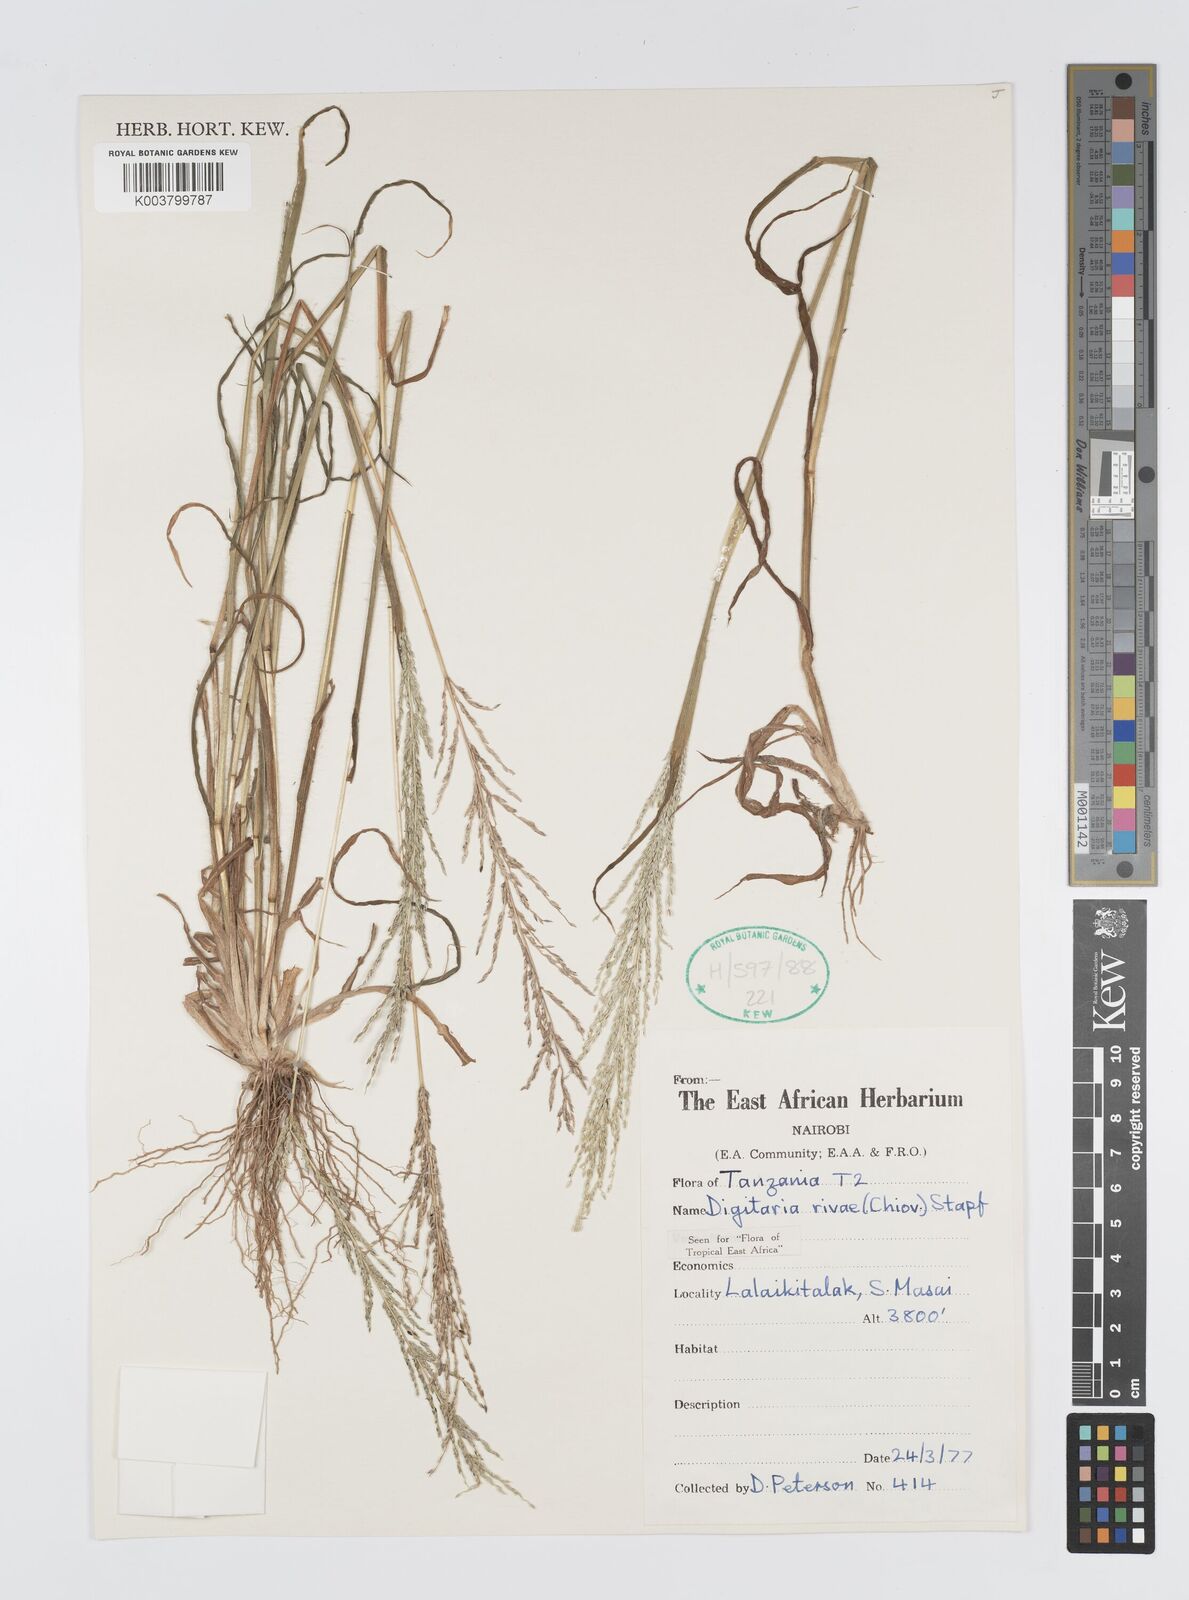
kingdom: Plantae
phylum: Tracheophyta
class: Liliopsida
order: Poales
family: Poaceae
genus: Digitaria
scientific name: Digitaria rivae
